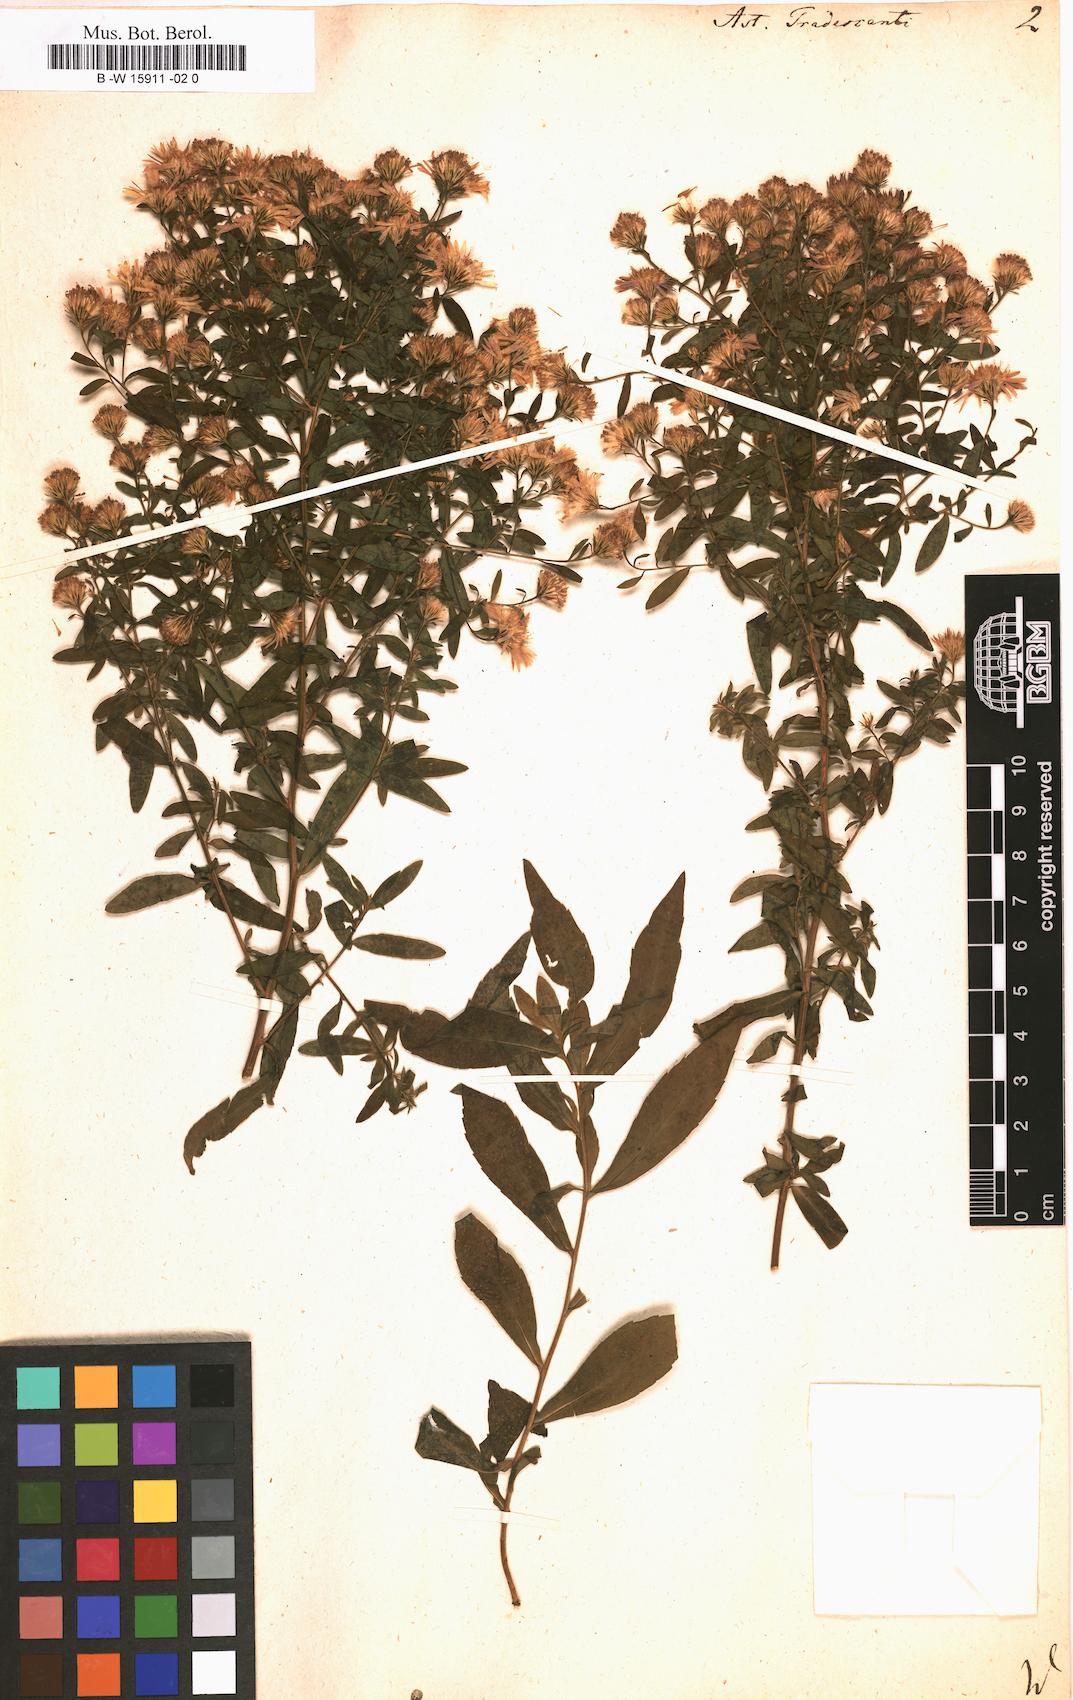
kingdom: Plantae
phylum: Tracheophyta
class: Magnoliopsida
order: Asterales
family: Asteraceae
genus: Aster
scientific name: Aster tradescanti
